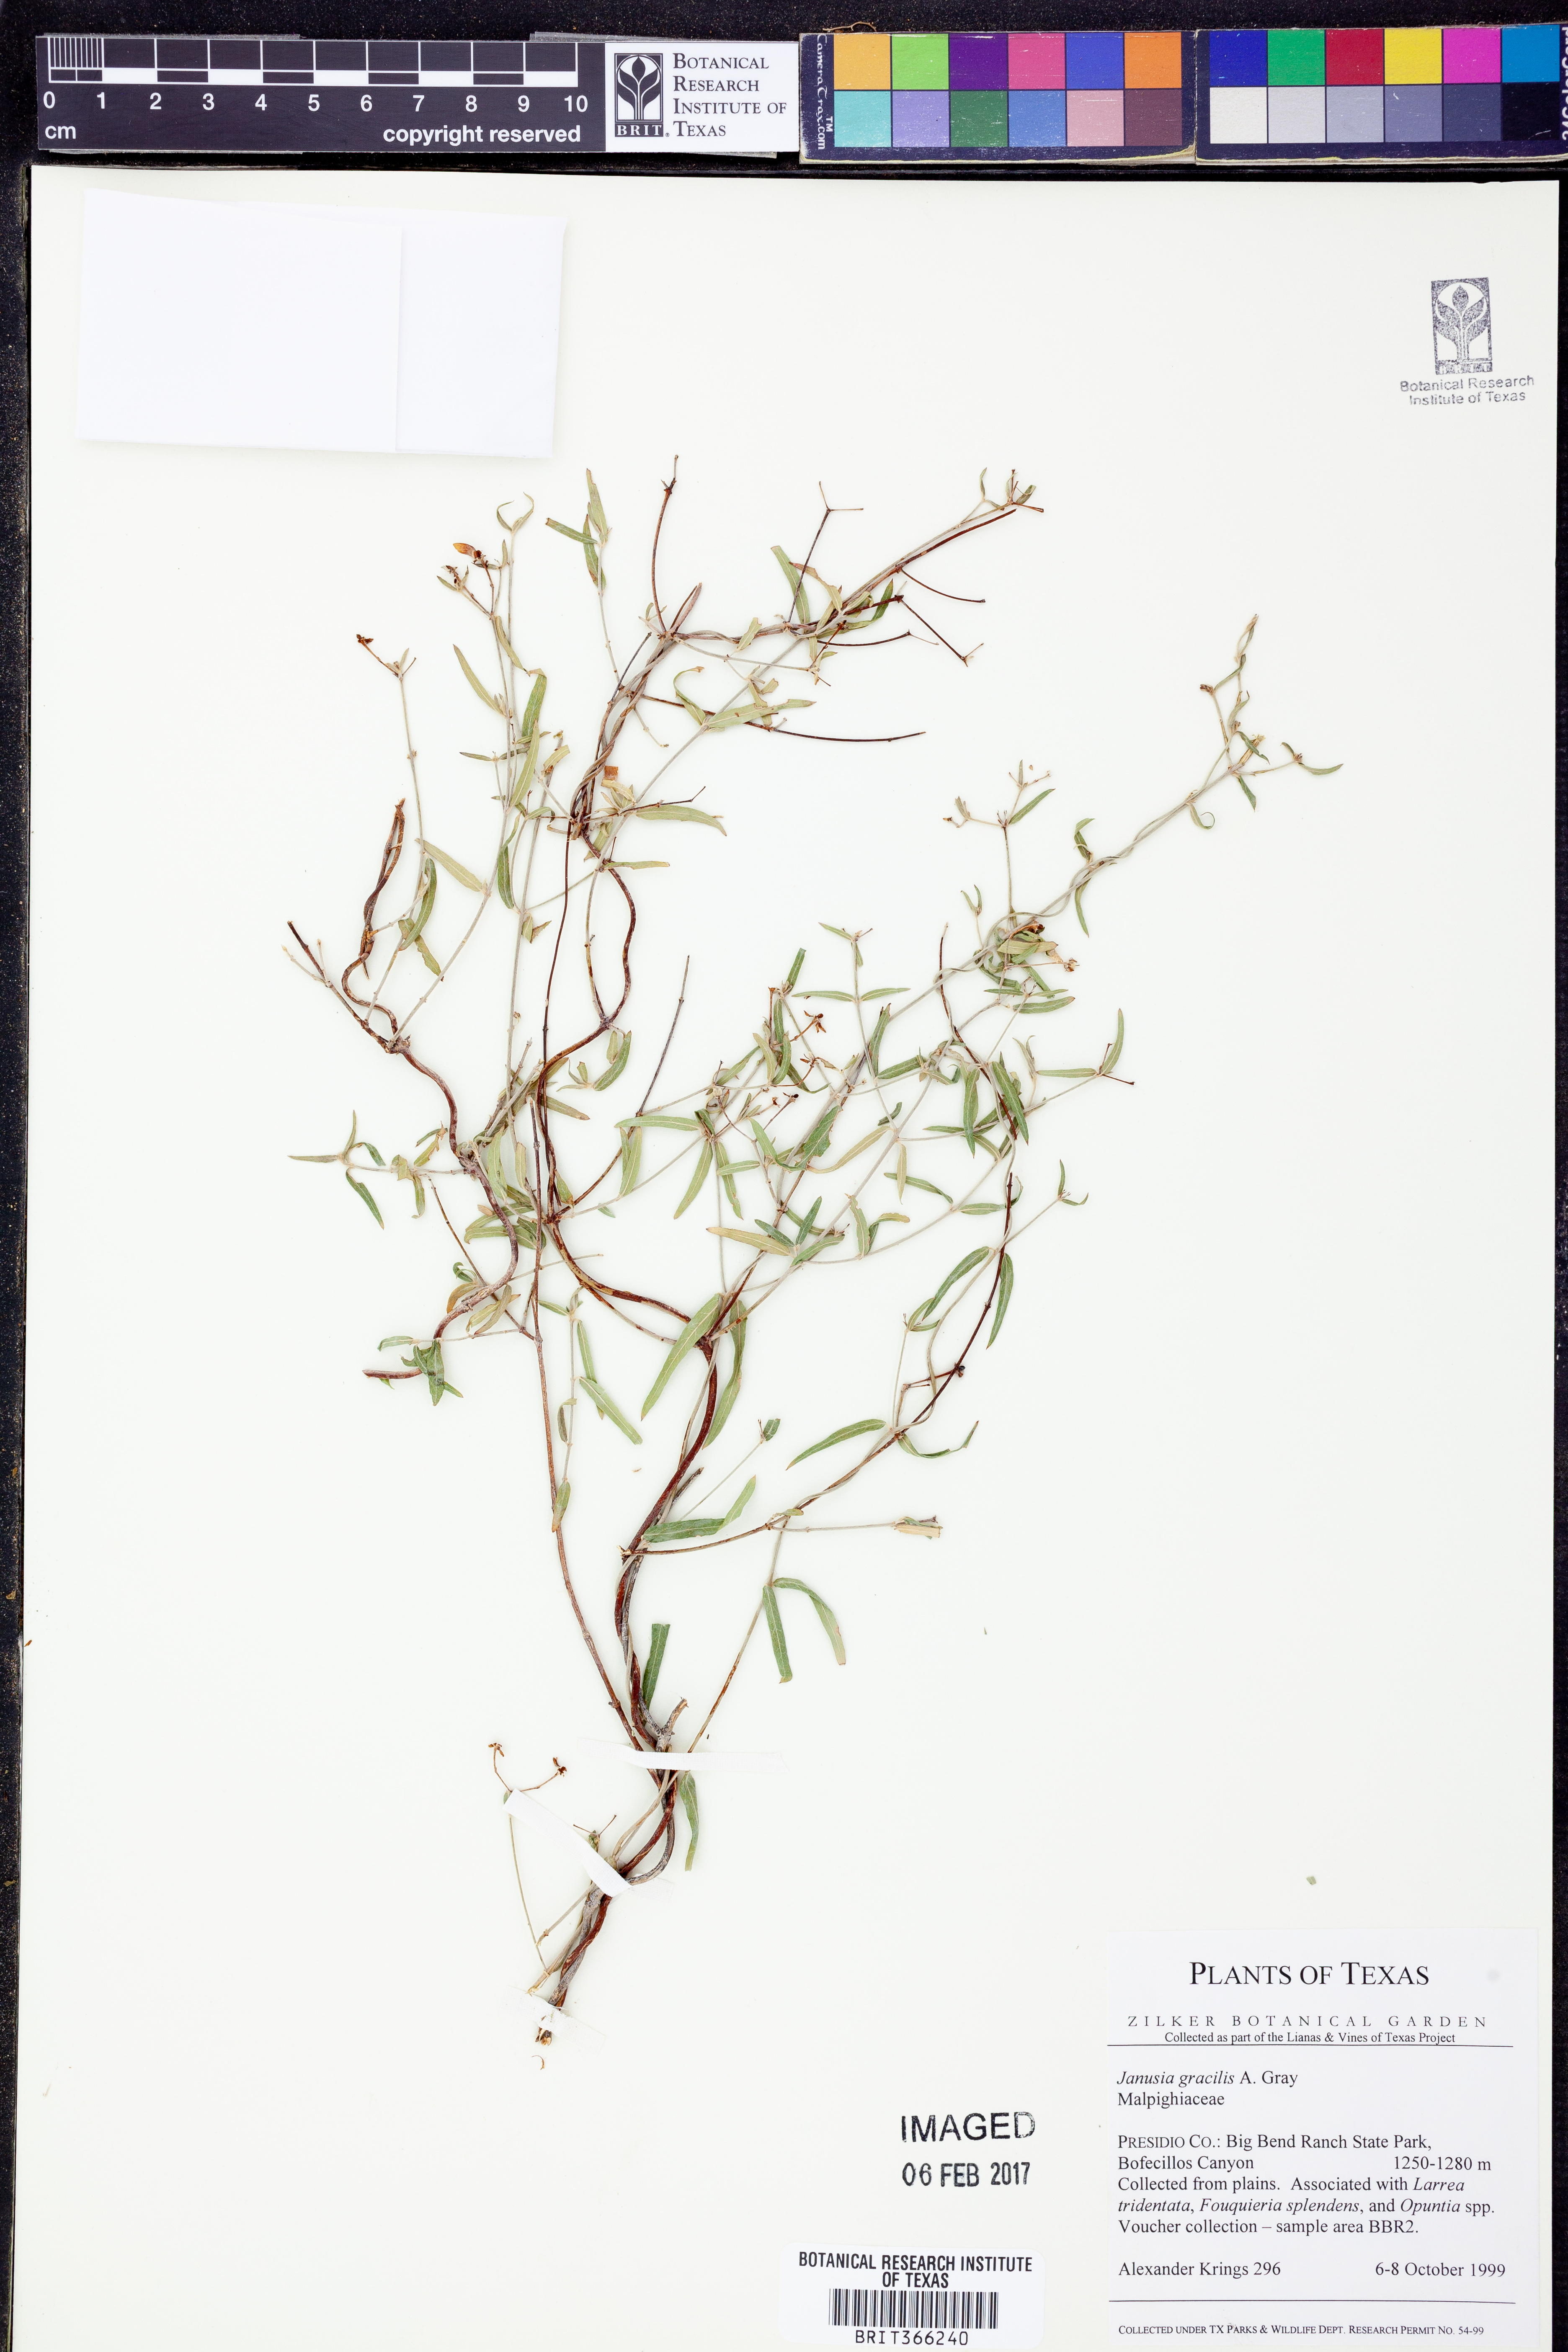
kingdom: Plantae
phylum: Tracheophyta
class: Magnoliopsida
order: Malpighiales
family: Malpighiaceae
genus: Cottsia
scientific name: Cottsia gracilis
